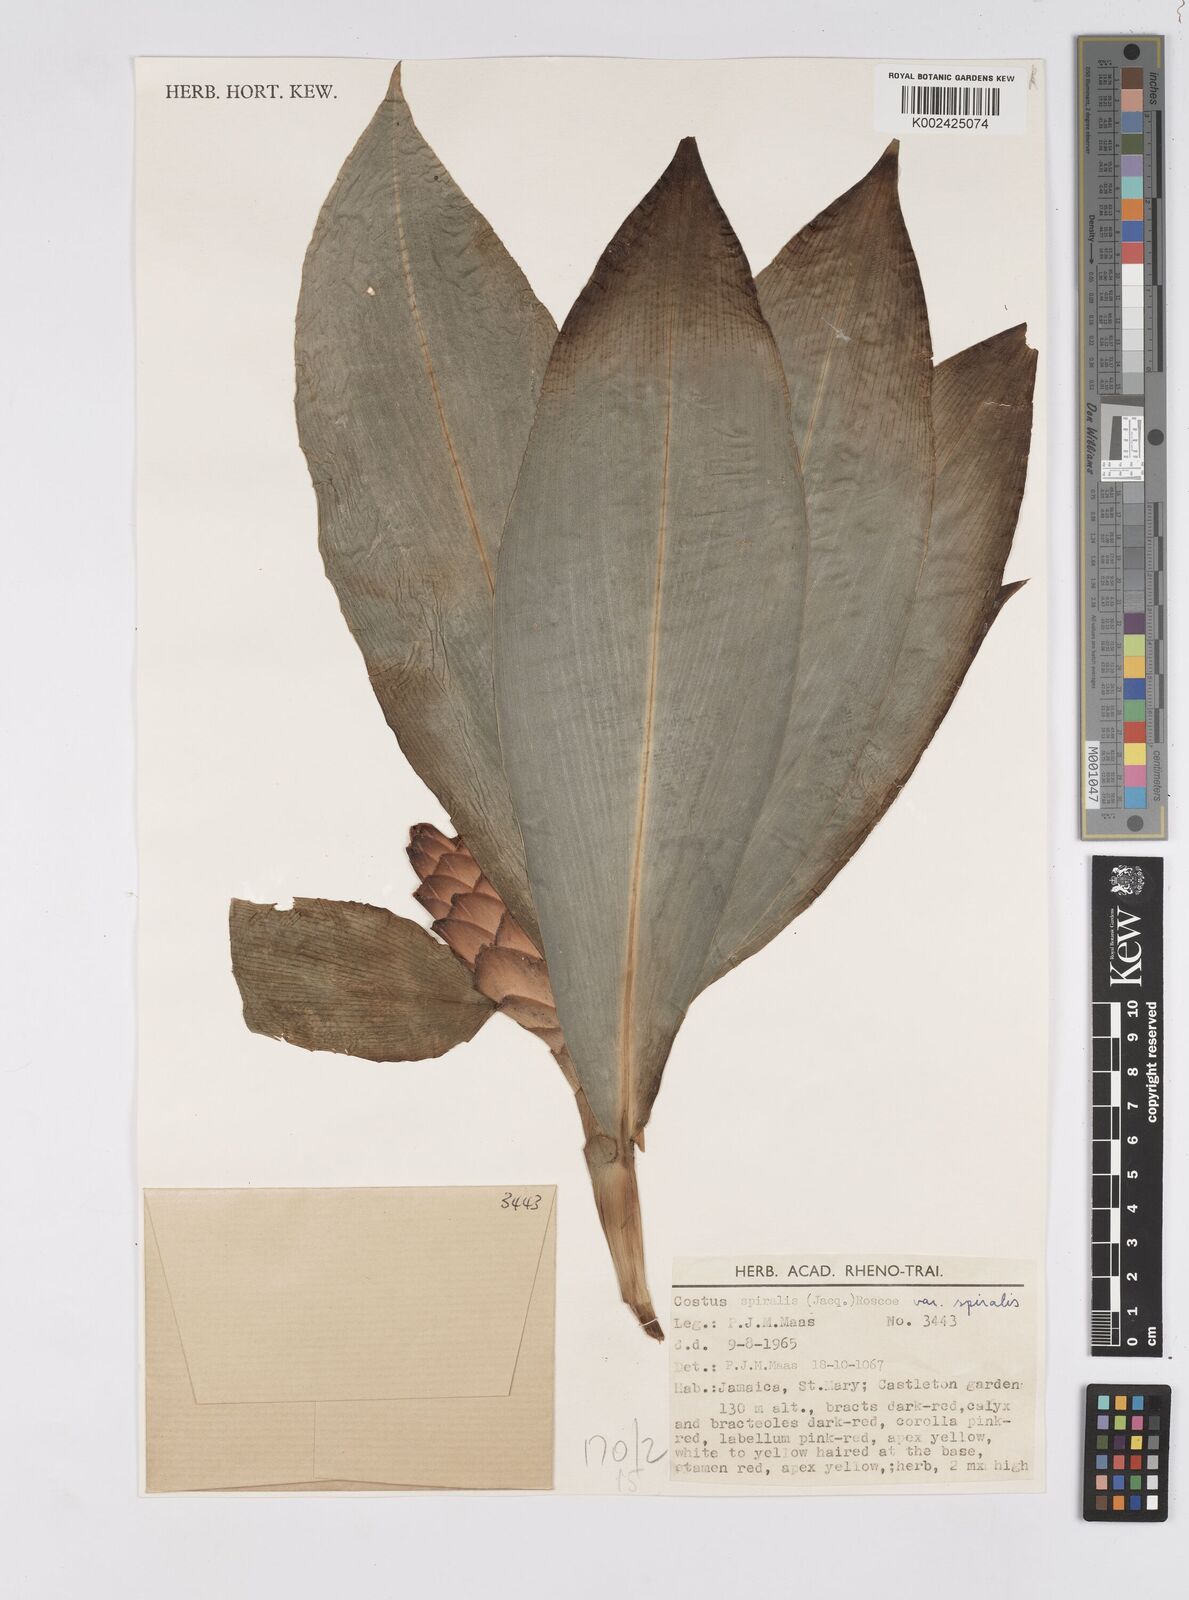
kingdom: Plantae
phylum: Tracheophyta
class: Liliopsida
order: Zingiberales
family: Costaceae
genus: Costus
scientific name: Costus spiralis
